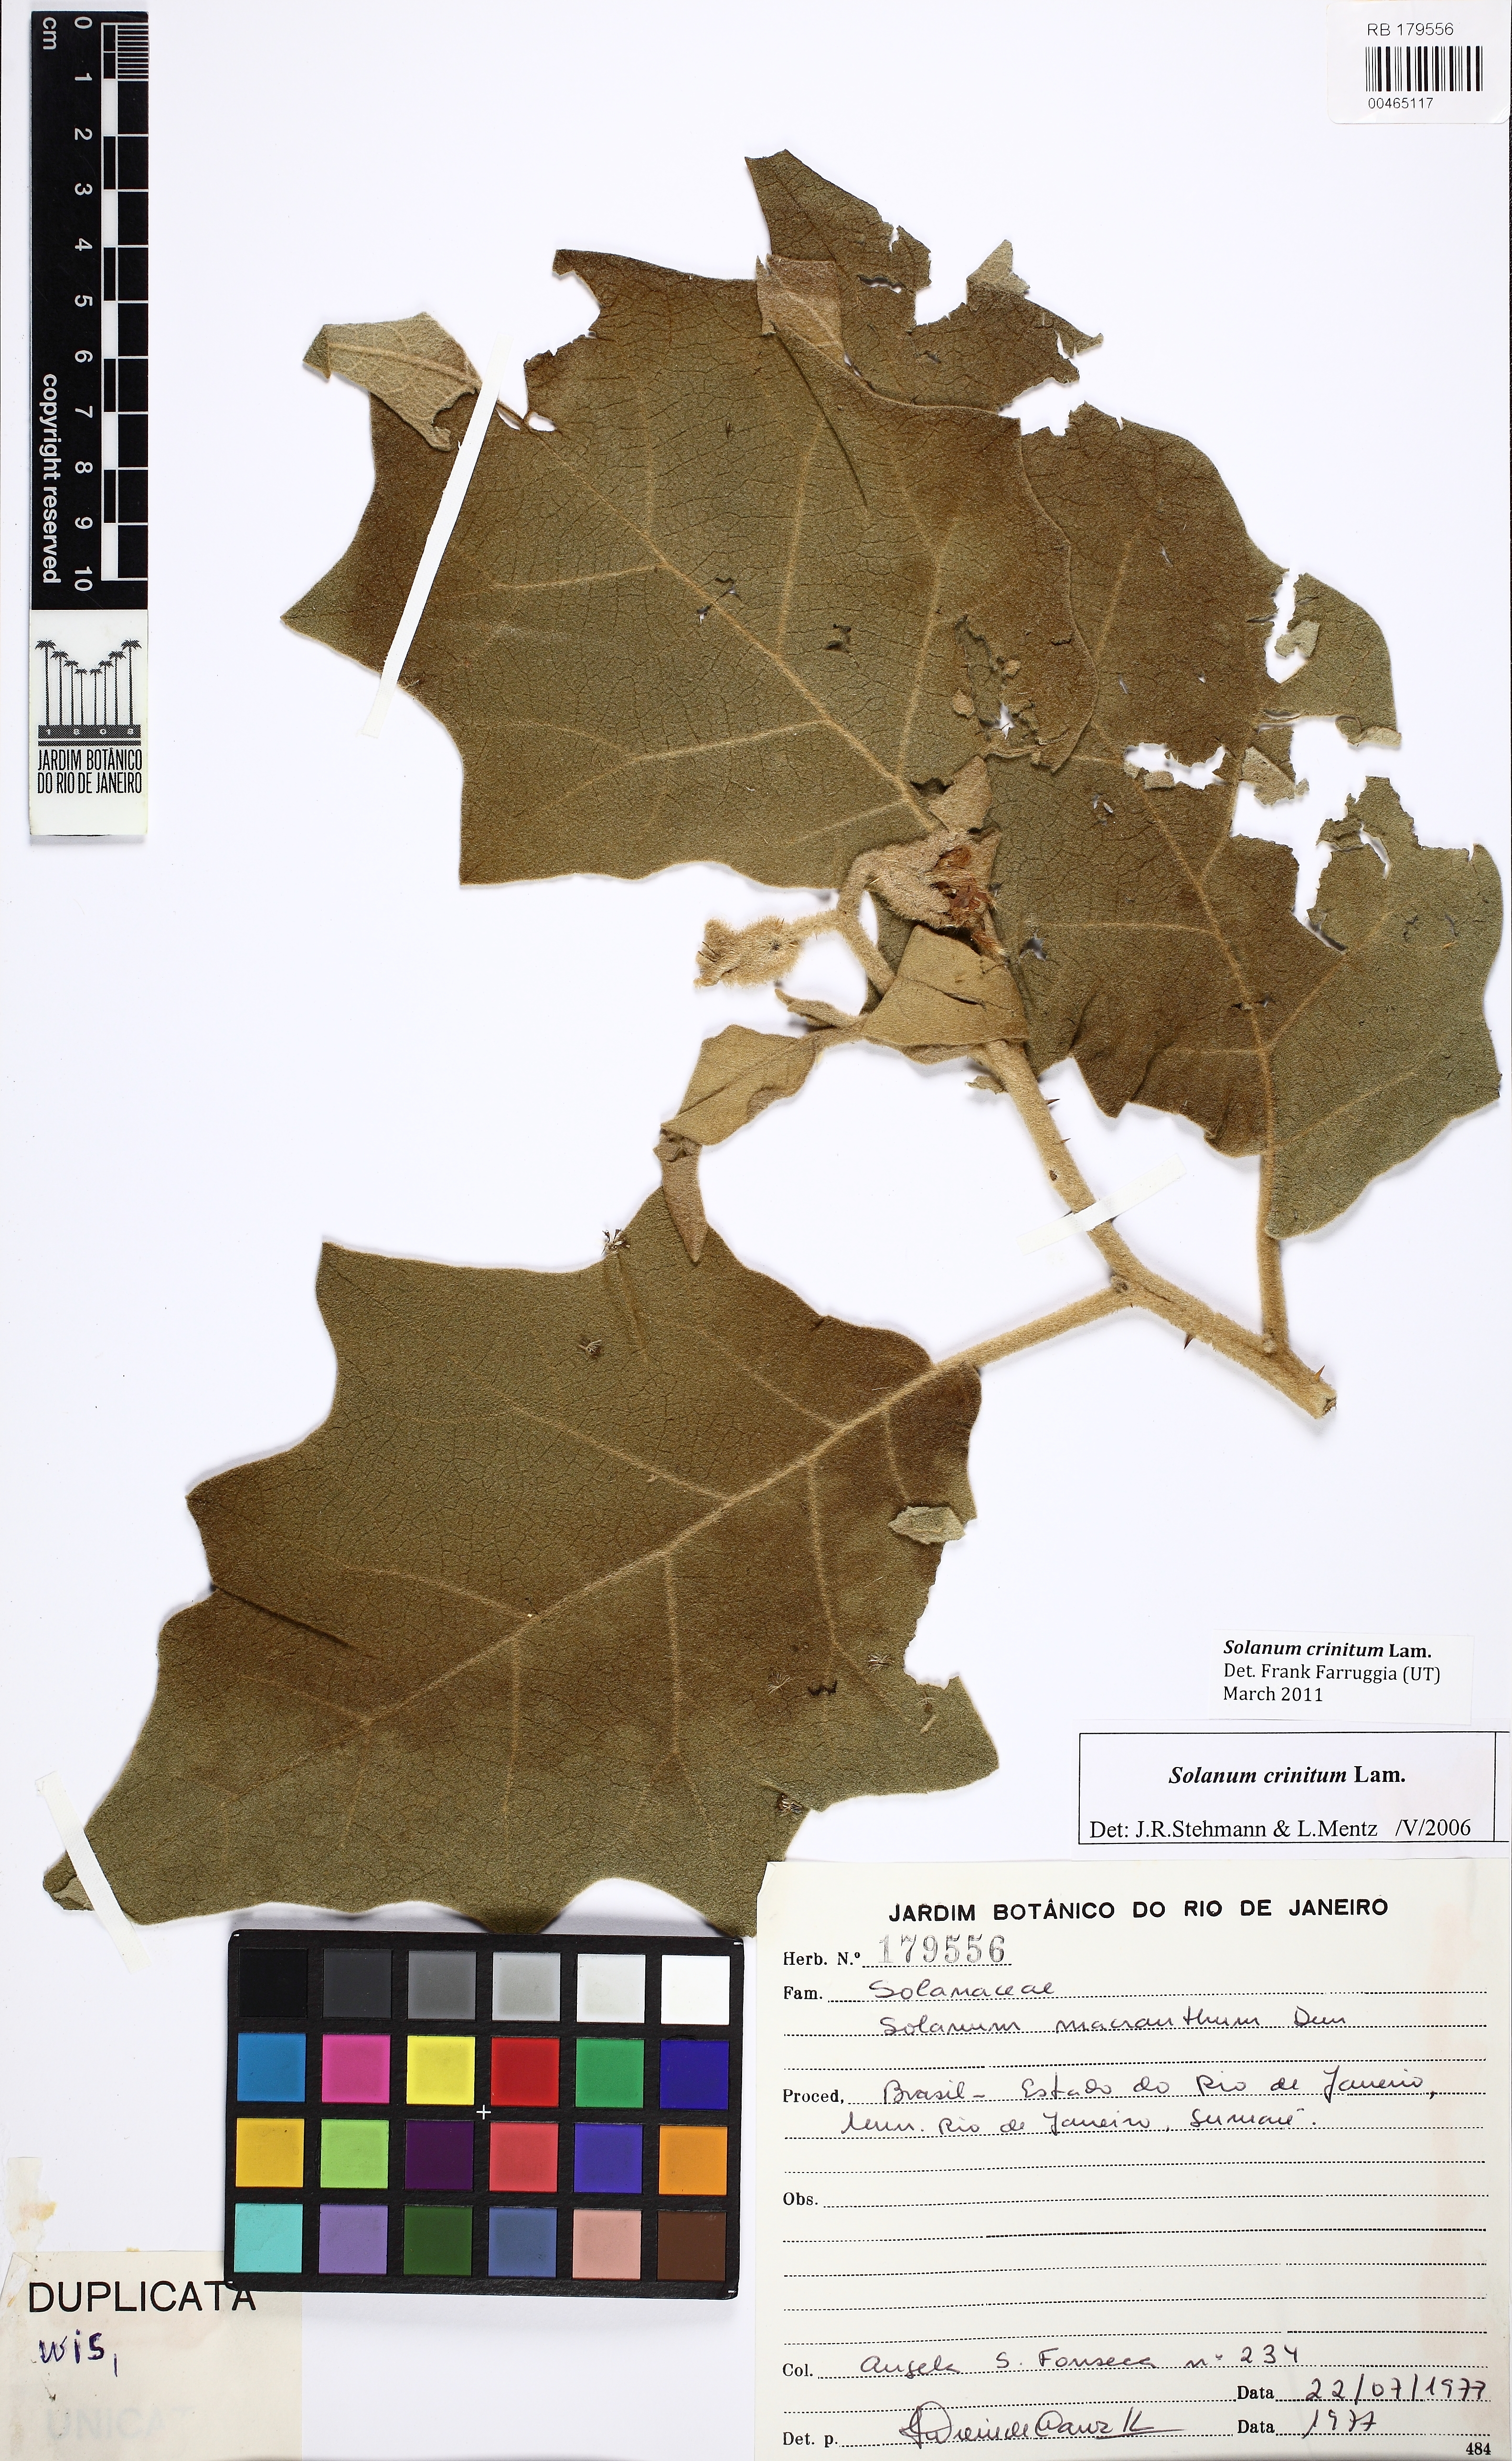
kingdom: Plantae
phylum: Tracheophyta
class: Magnoliopsida
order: Solanales
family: Solanaceae
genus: Solanum
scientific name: Solanum crinitum
